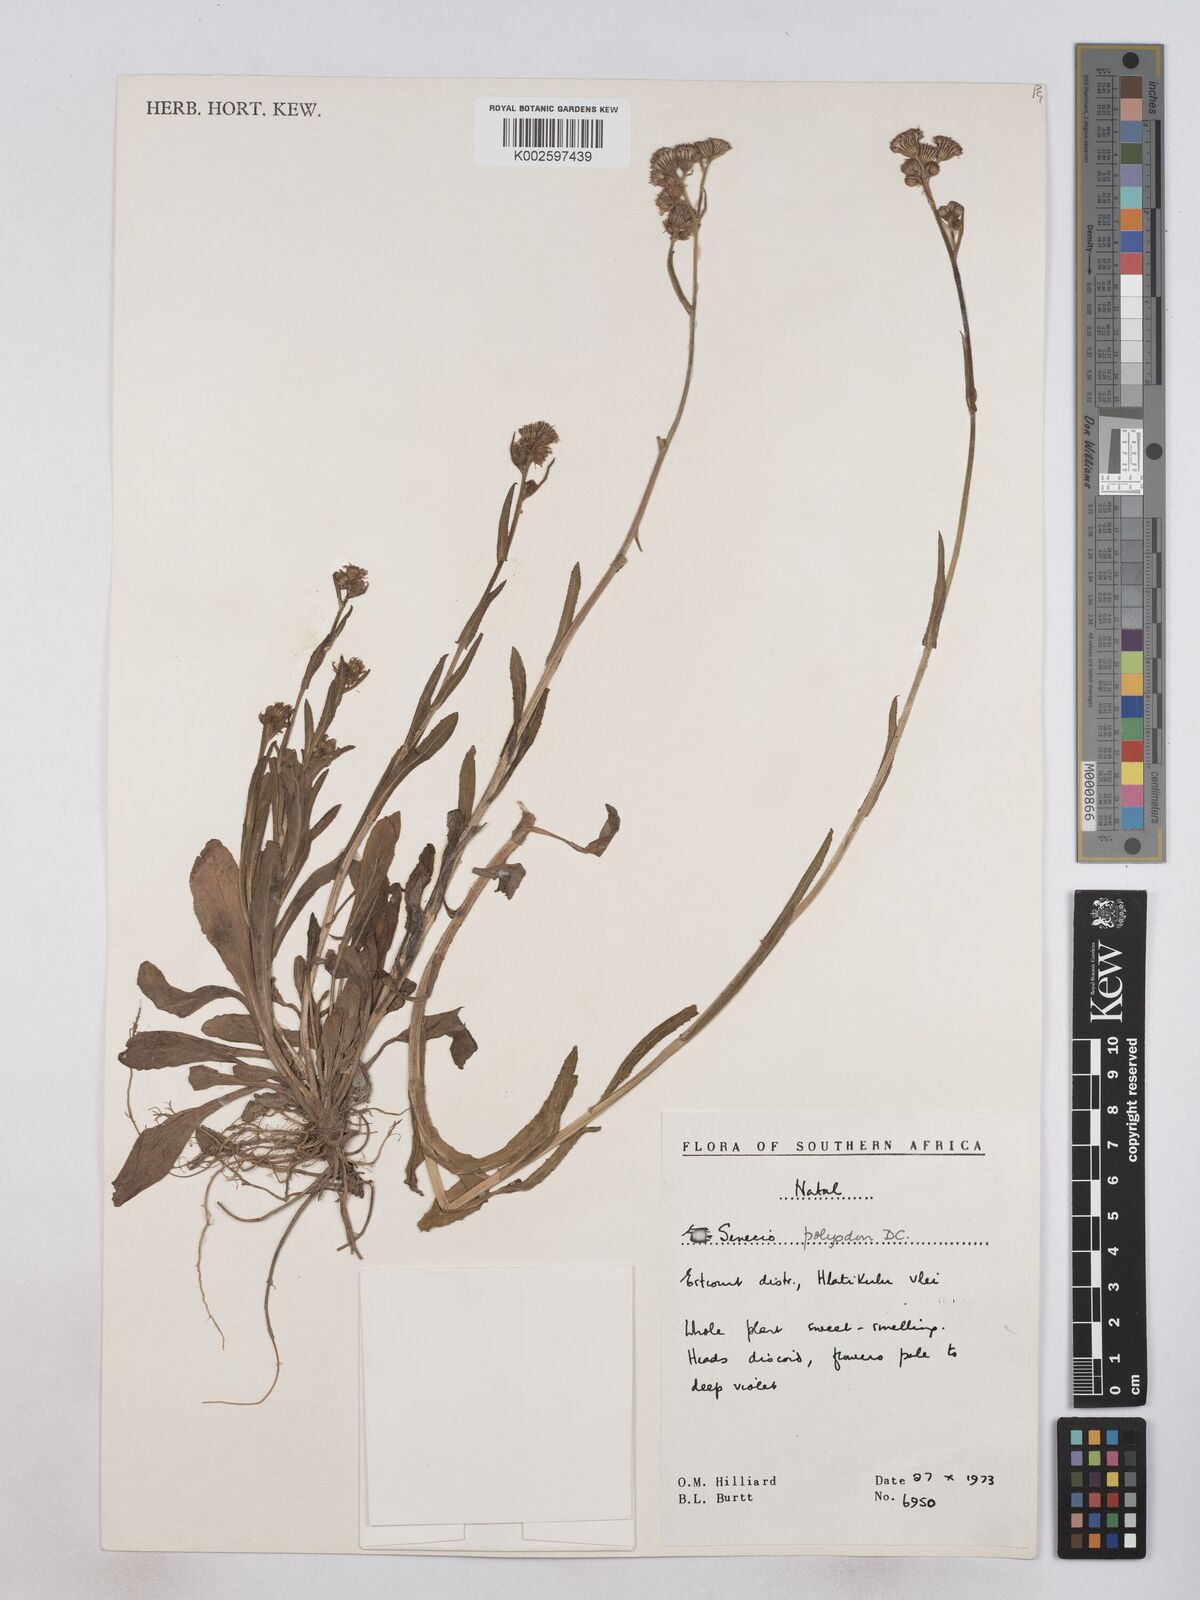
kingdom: Plantae
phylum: Tracheophyta
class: Magnoliopsida
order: Asterales
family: Asteraceae
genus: Senecio
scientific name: Senecio polyodon
